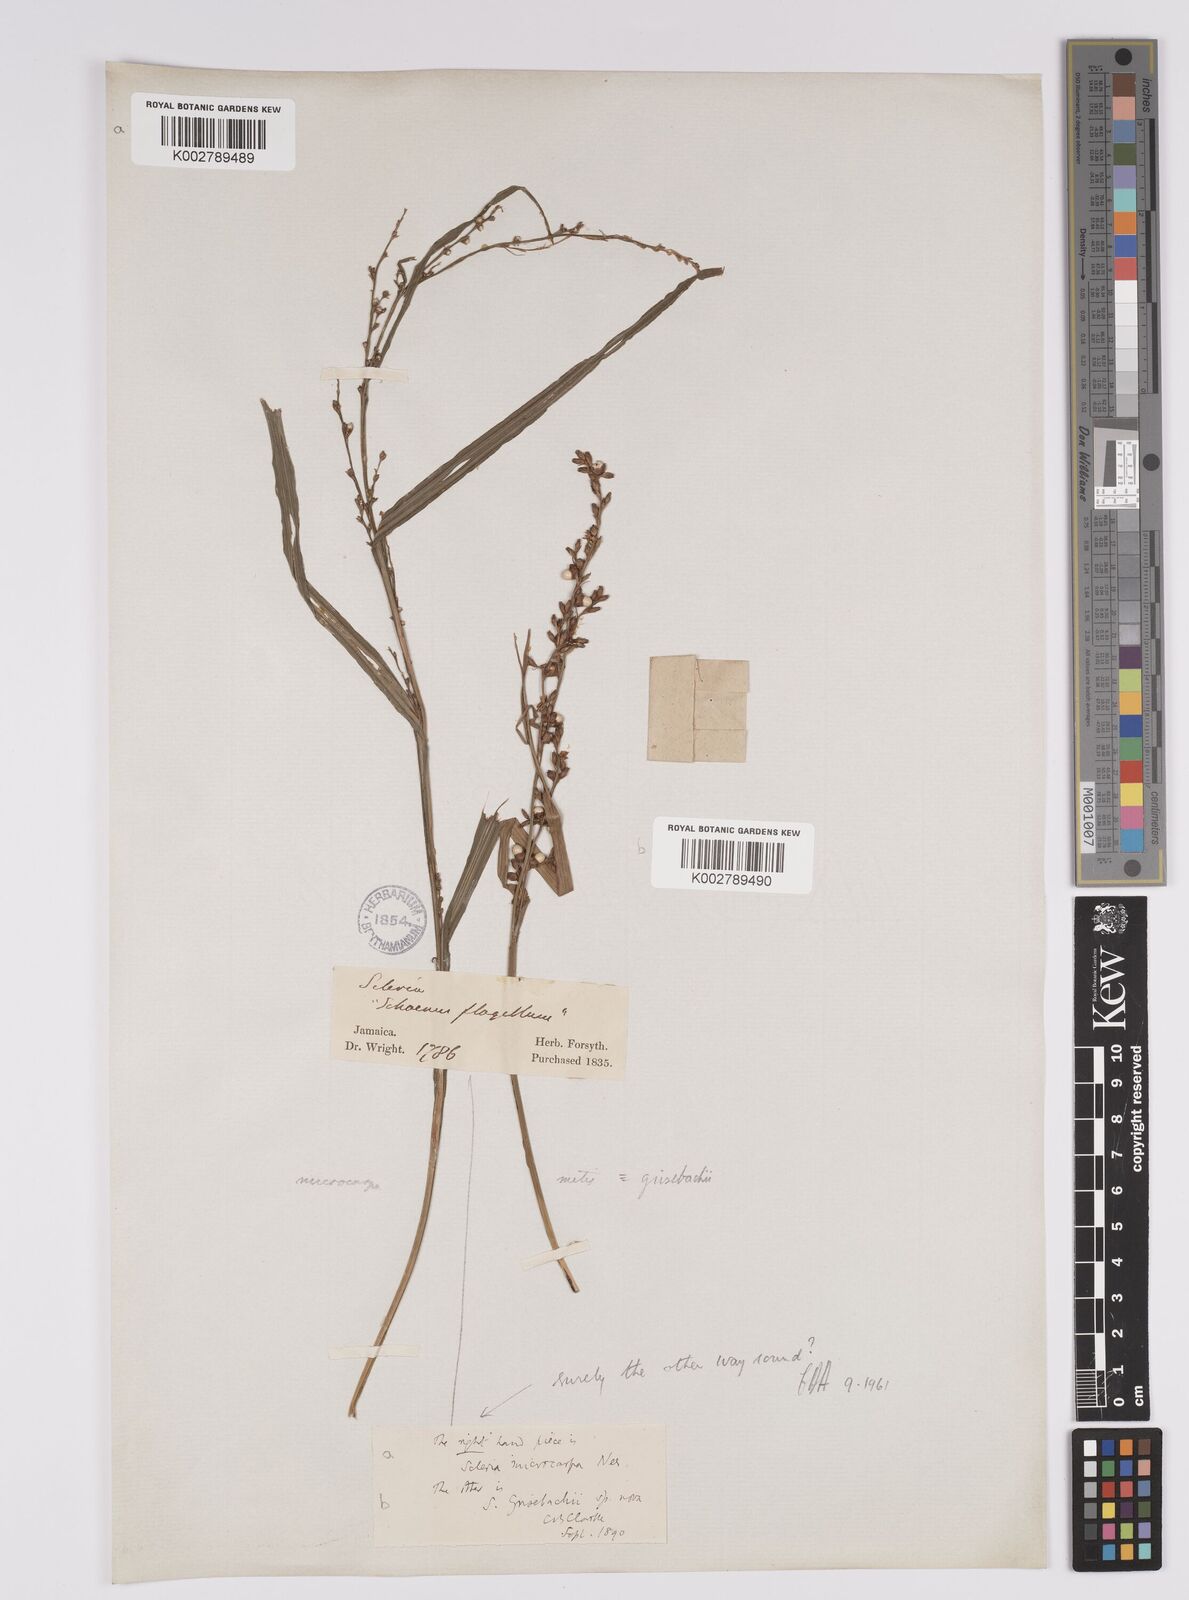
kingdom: Plantae
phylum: Tracheophyta
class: Liliopsida
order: Poales
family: Cyperaceae
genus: Scleria
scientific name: Scleria eggersiana
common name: Eggers' nutrush
